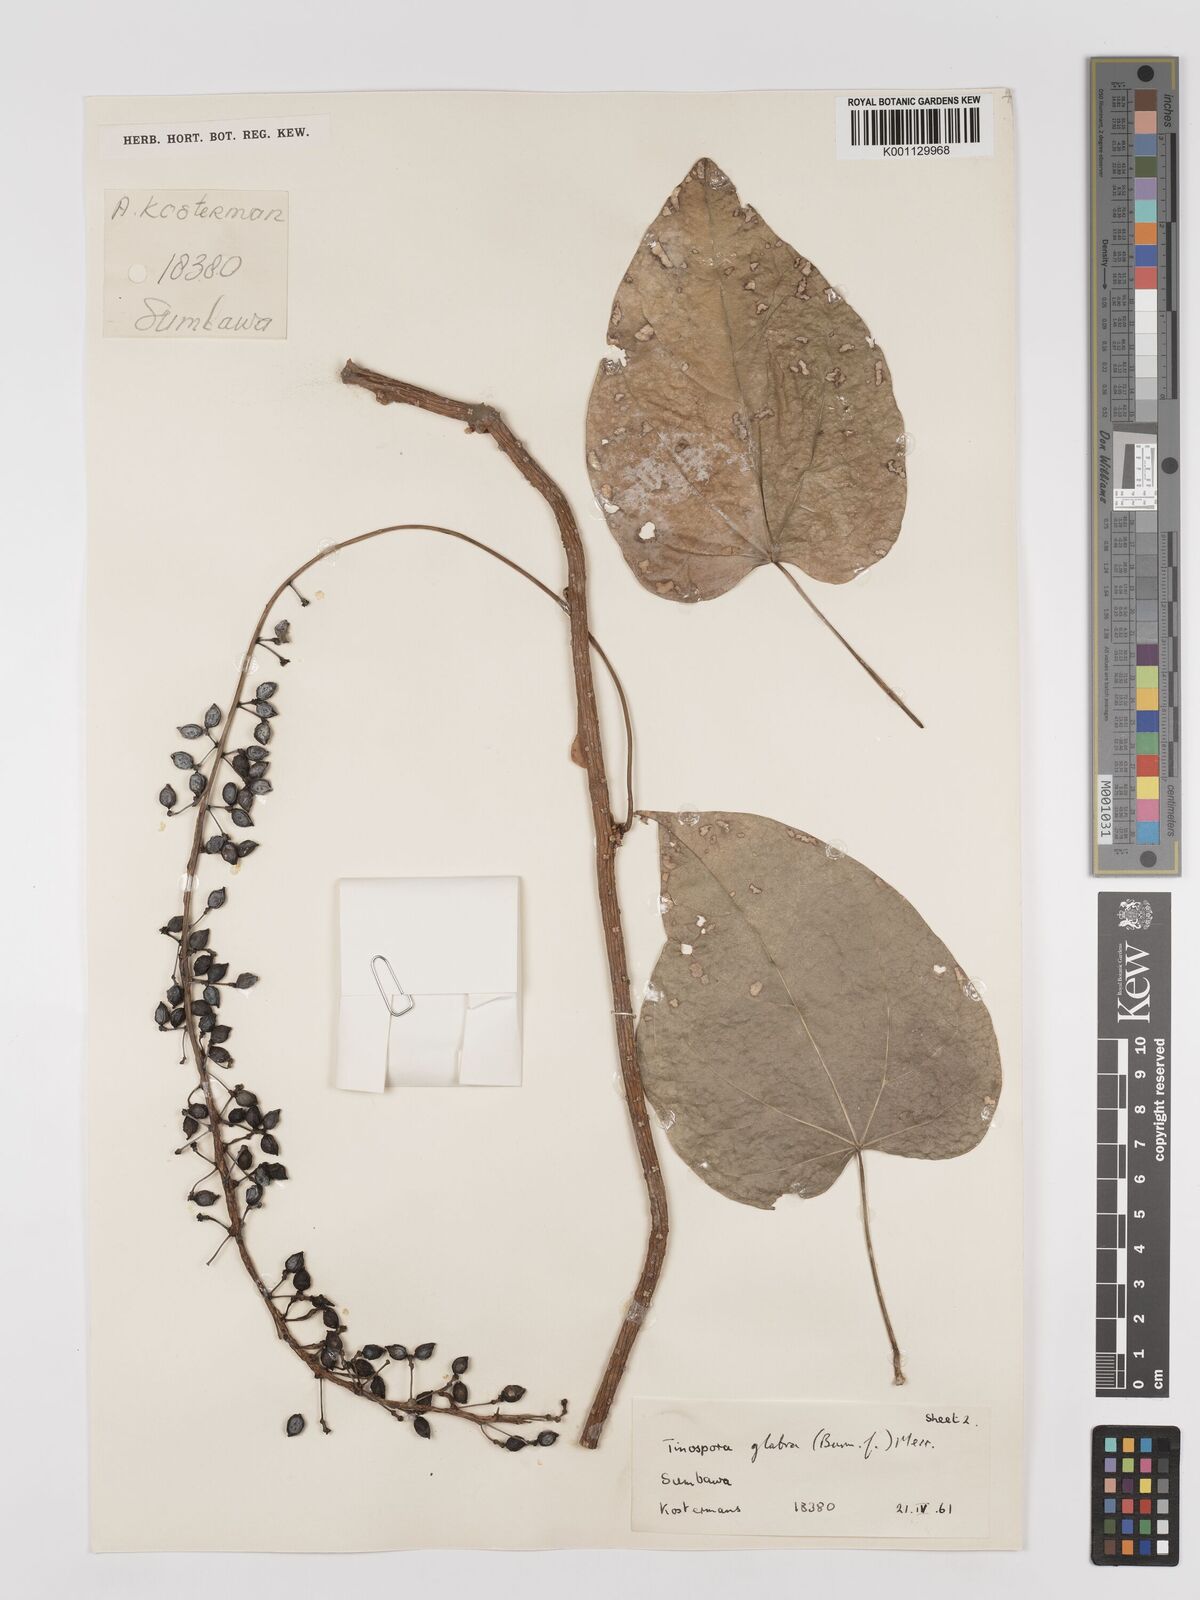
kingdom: Plantae
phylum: Tracheophyta
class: Magnoliopsida
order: Ranunculales
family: Menispermaceae
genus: Tinospora
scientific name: Tinospora glabra
